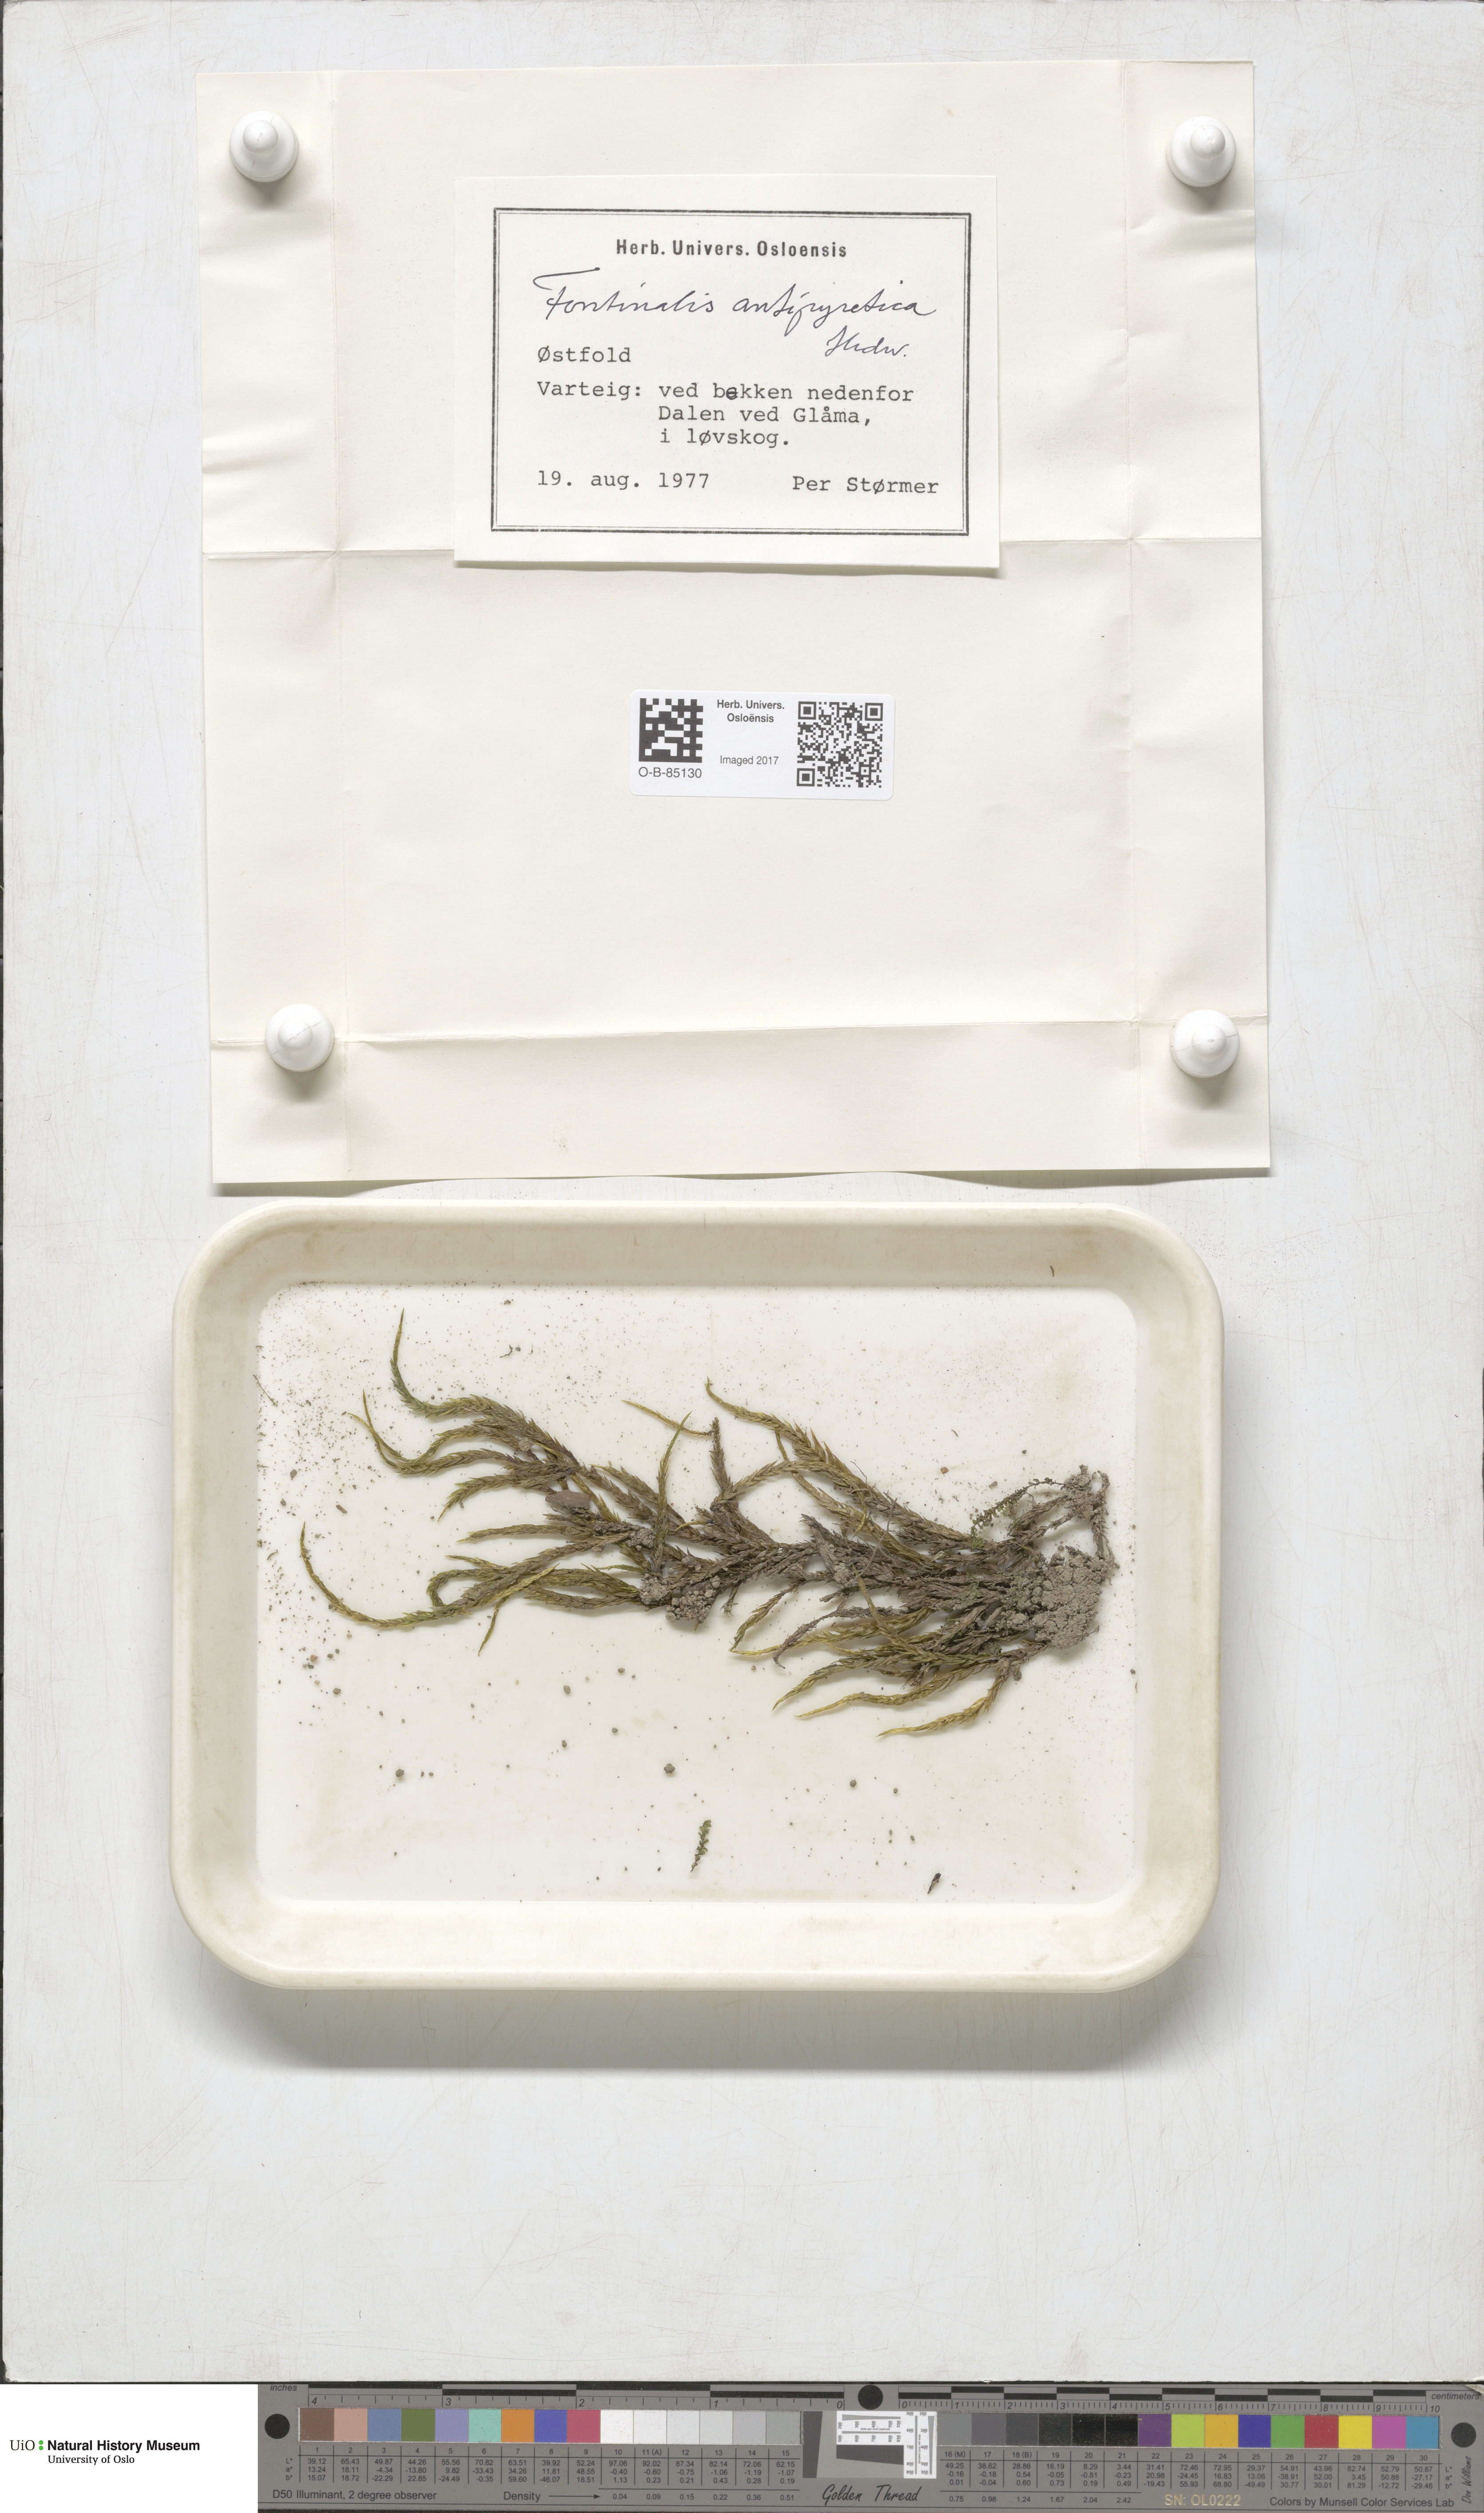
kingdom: Plantae
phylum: Bryophyta
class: Bryopsida
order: Hypnales
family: Fontinalaceae
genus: Fontinalis
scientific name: Fontinalis antipyretica
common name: Greater water-moss
